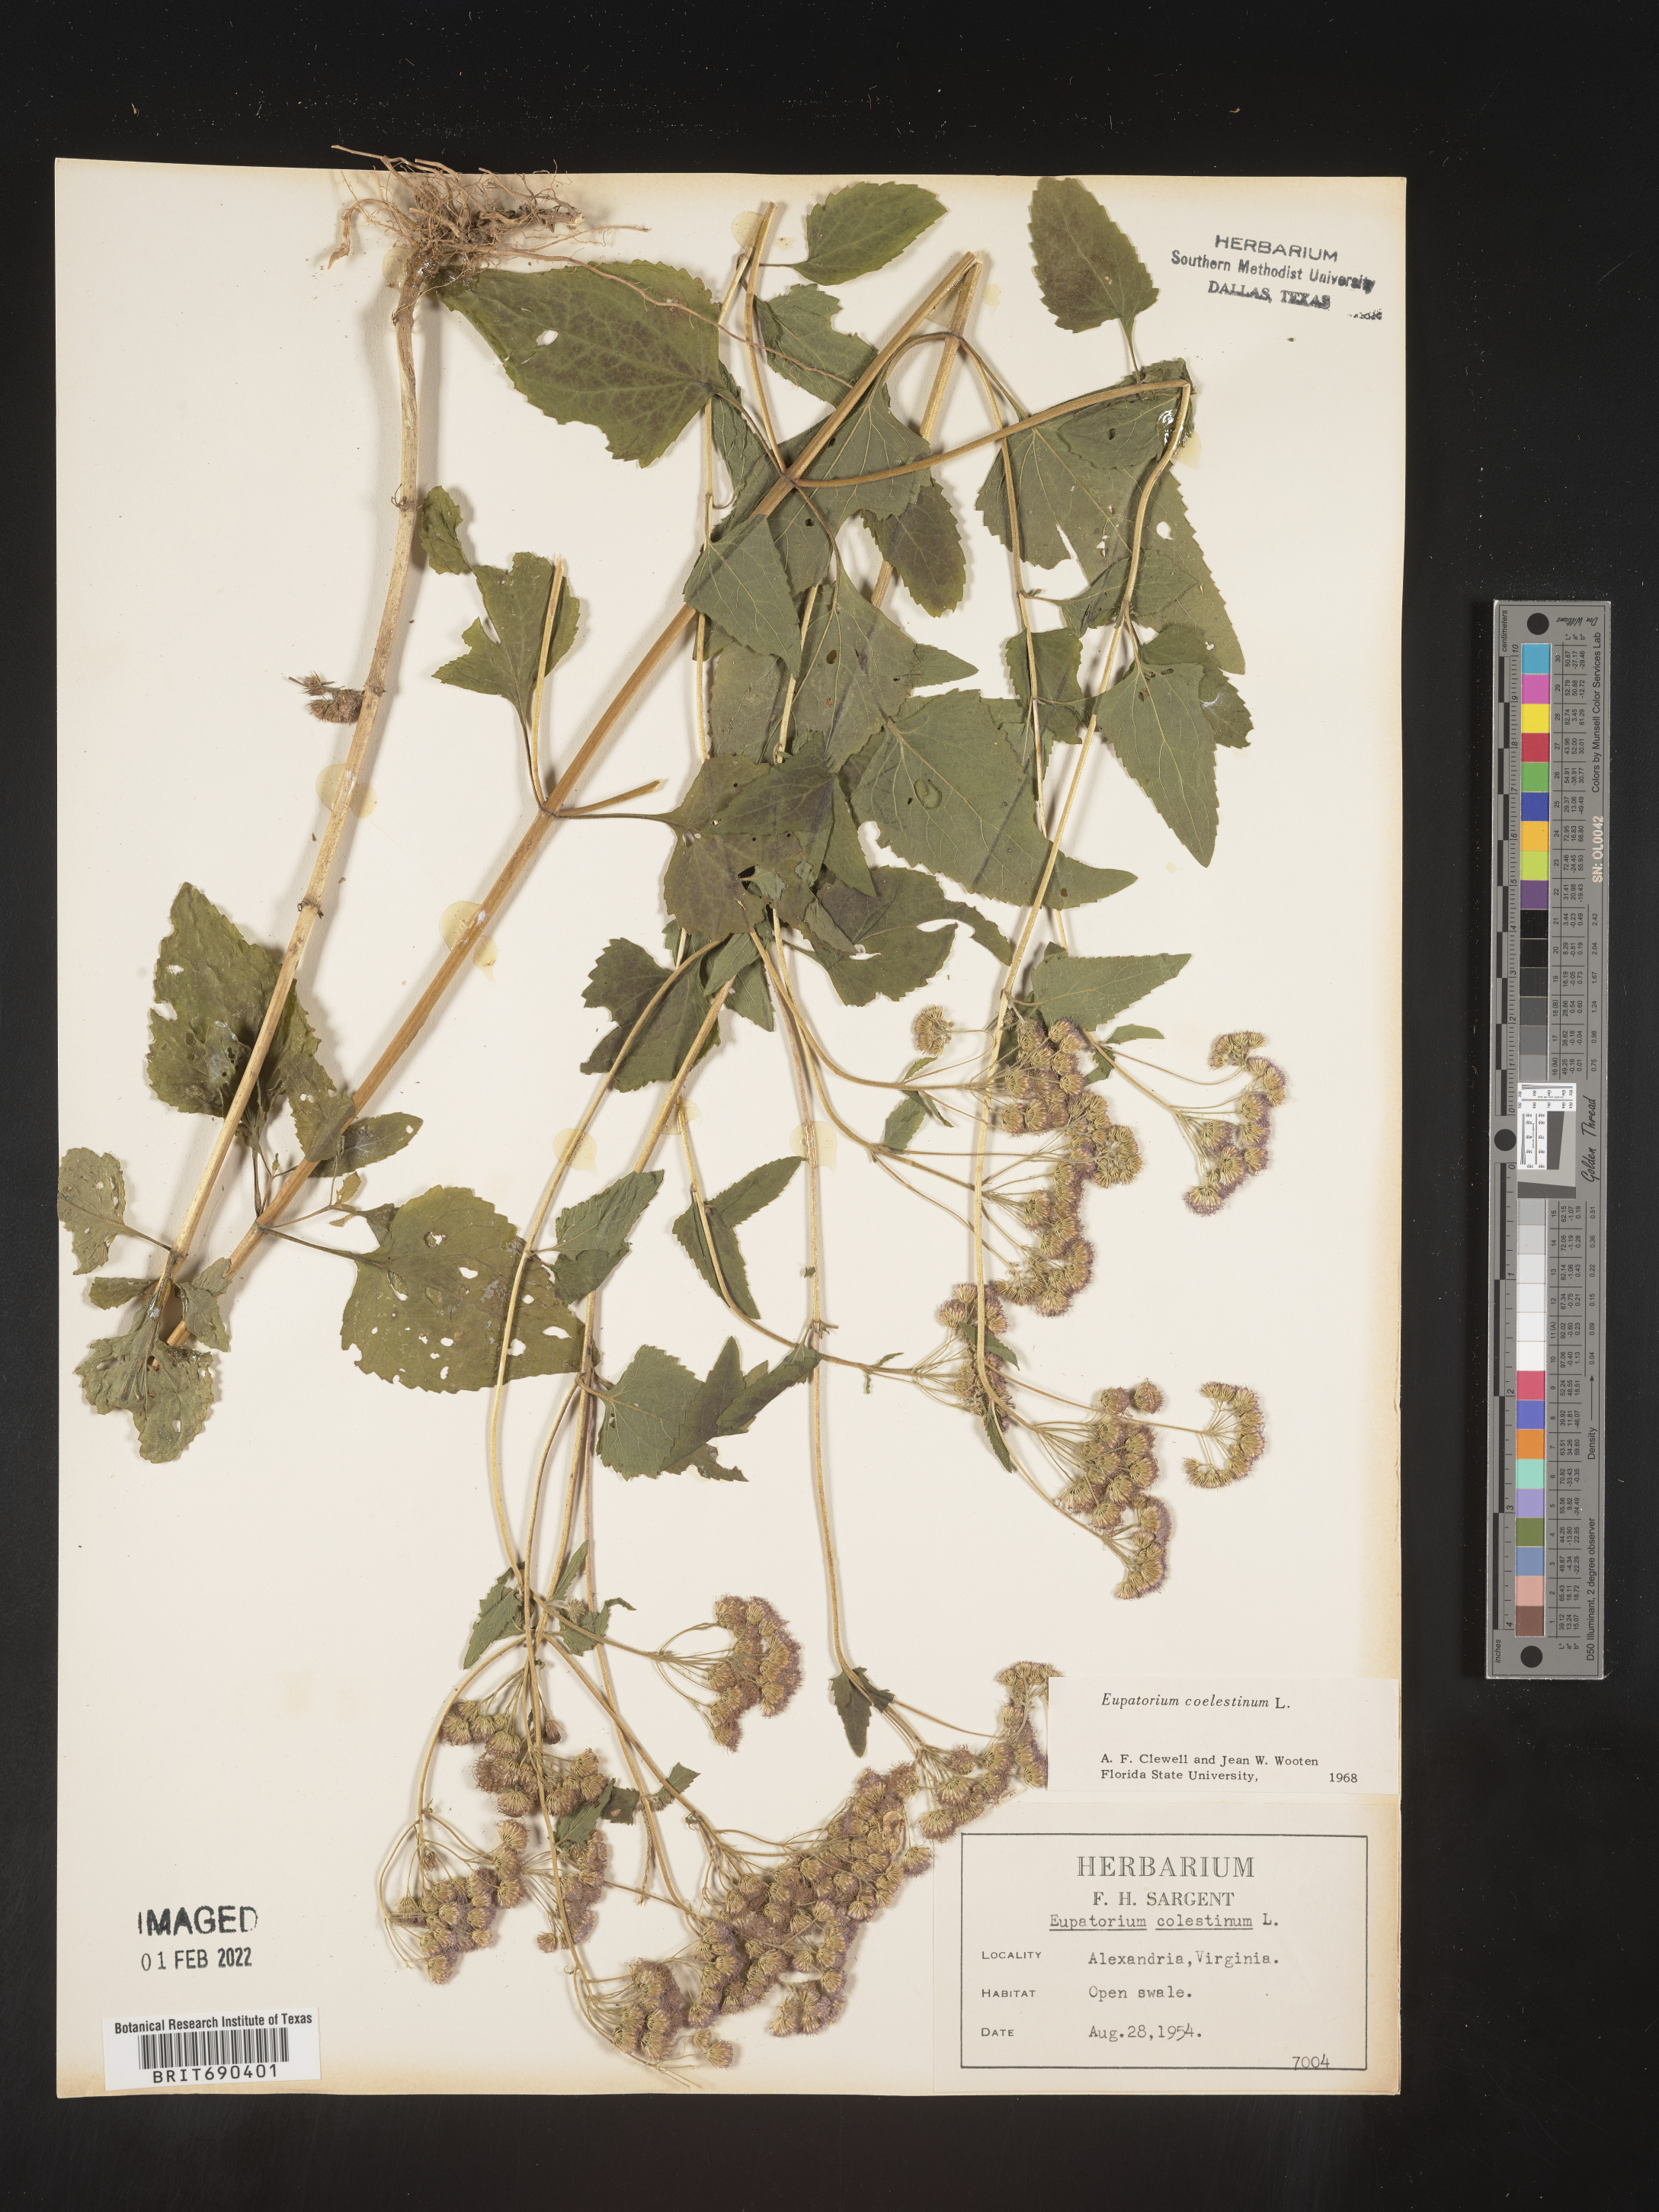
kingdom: Plantae
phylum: Tracheophyta
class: Magnoliopsida
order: Asterales
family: Asteraceae
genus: Conoclinium
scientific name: Conoclinium coelestinum
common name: Blue mistflower
